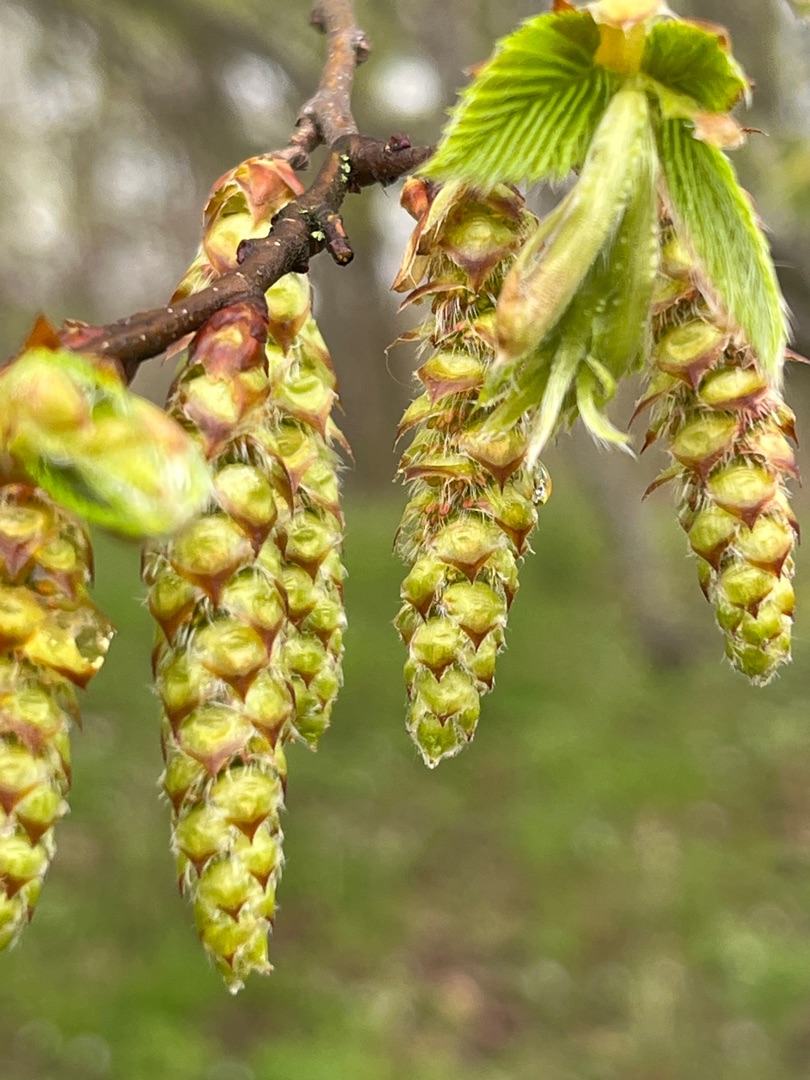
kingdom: Plantae
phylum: Tracheophyta
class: Magnoliopsida
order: Fagales
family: Betulaceae
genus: Carpinus
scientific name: Carpinus betulus
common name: Avnbøg
